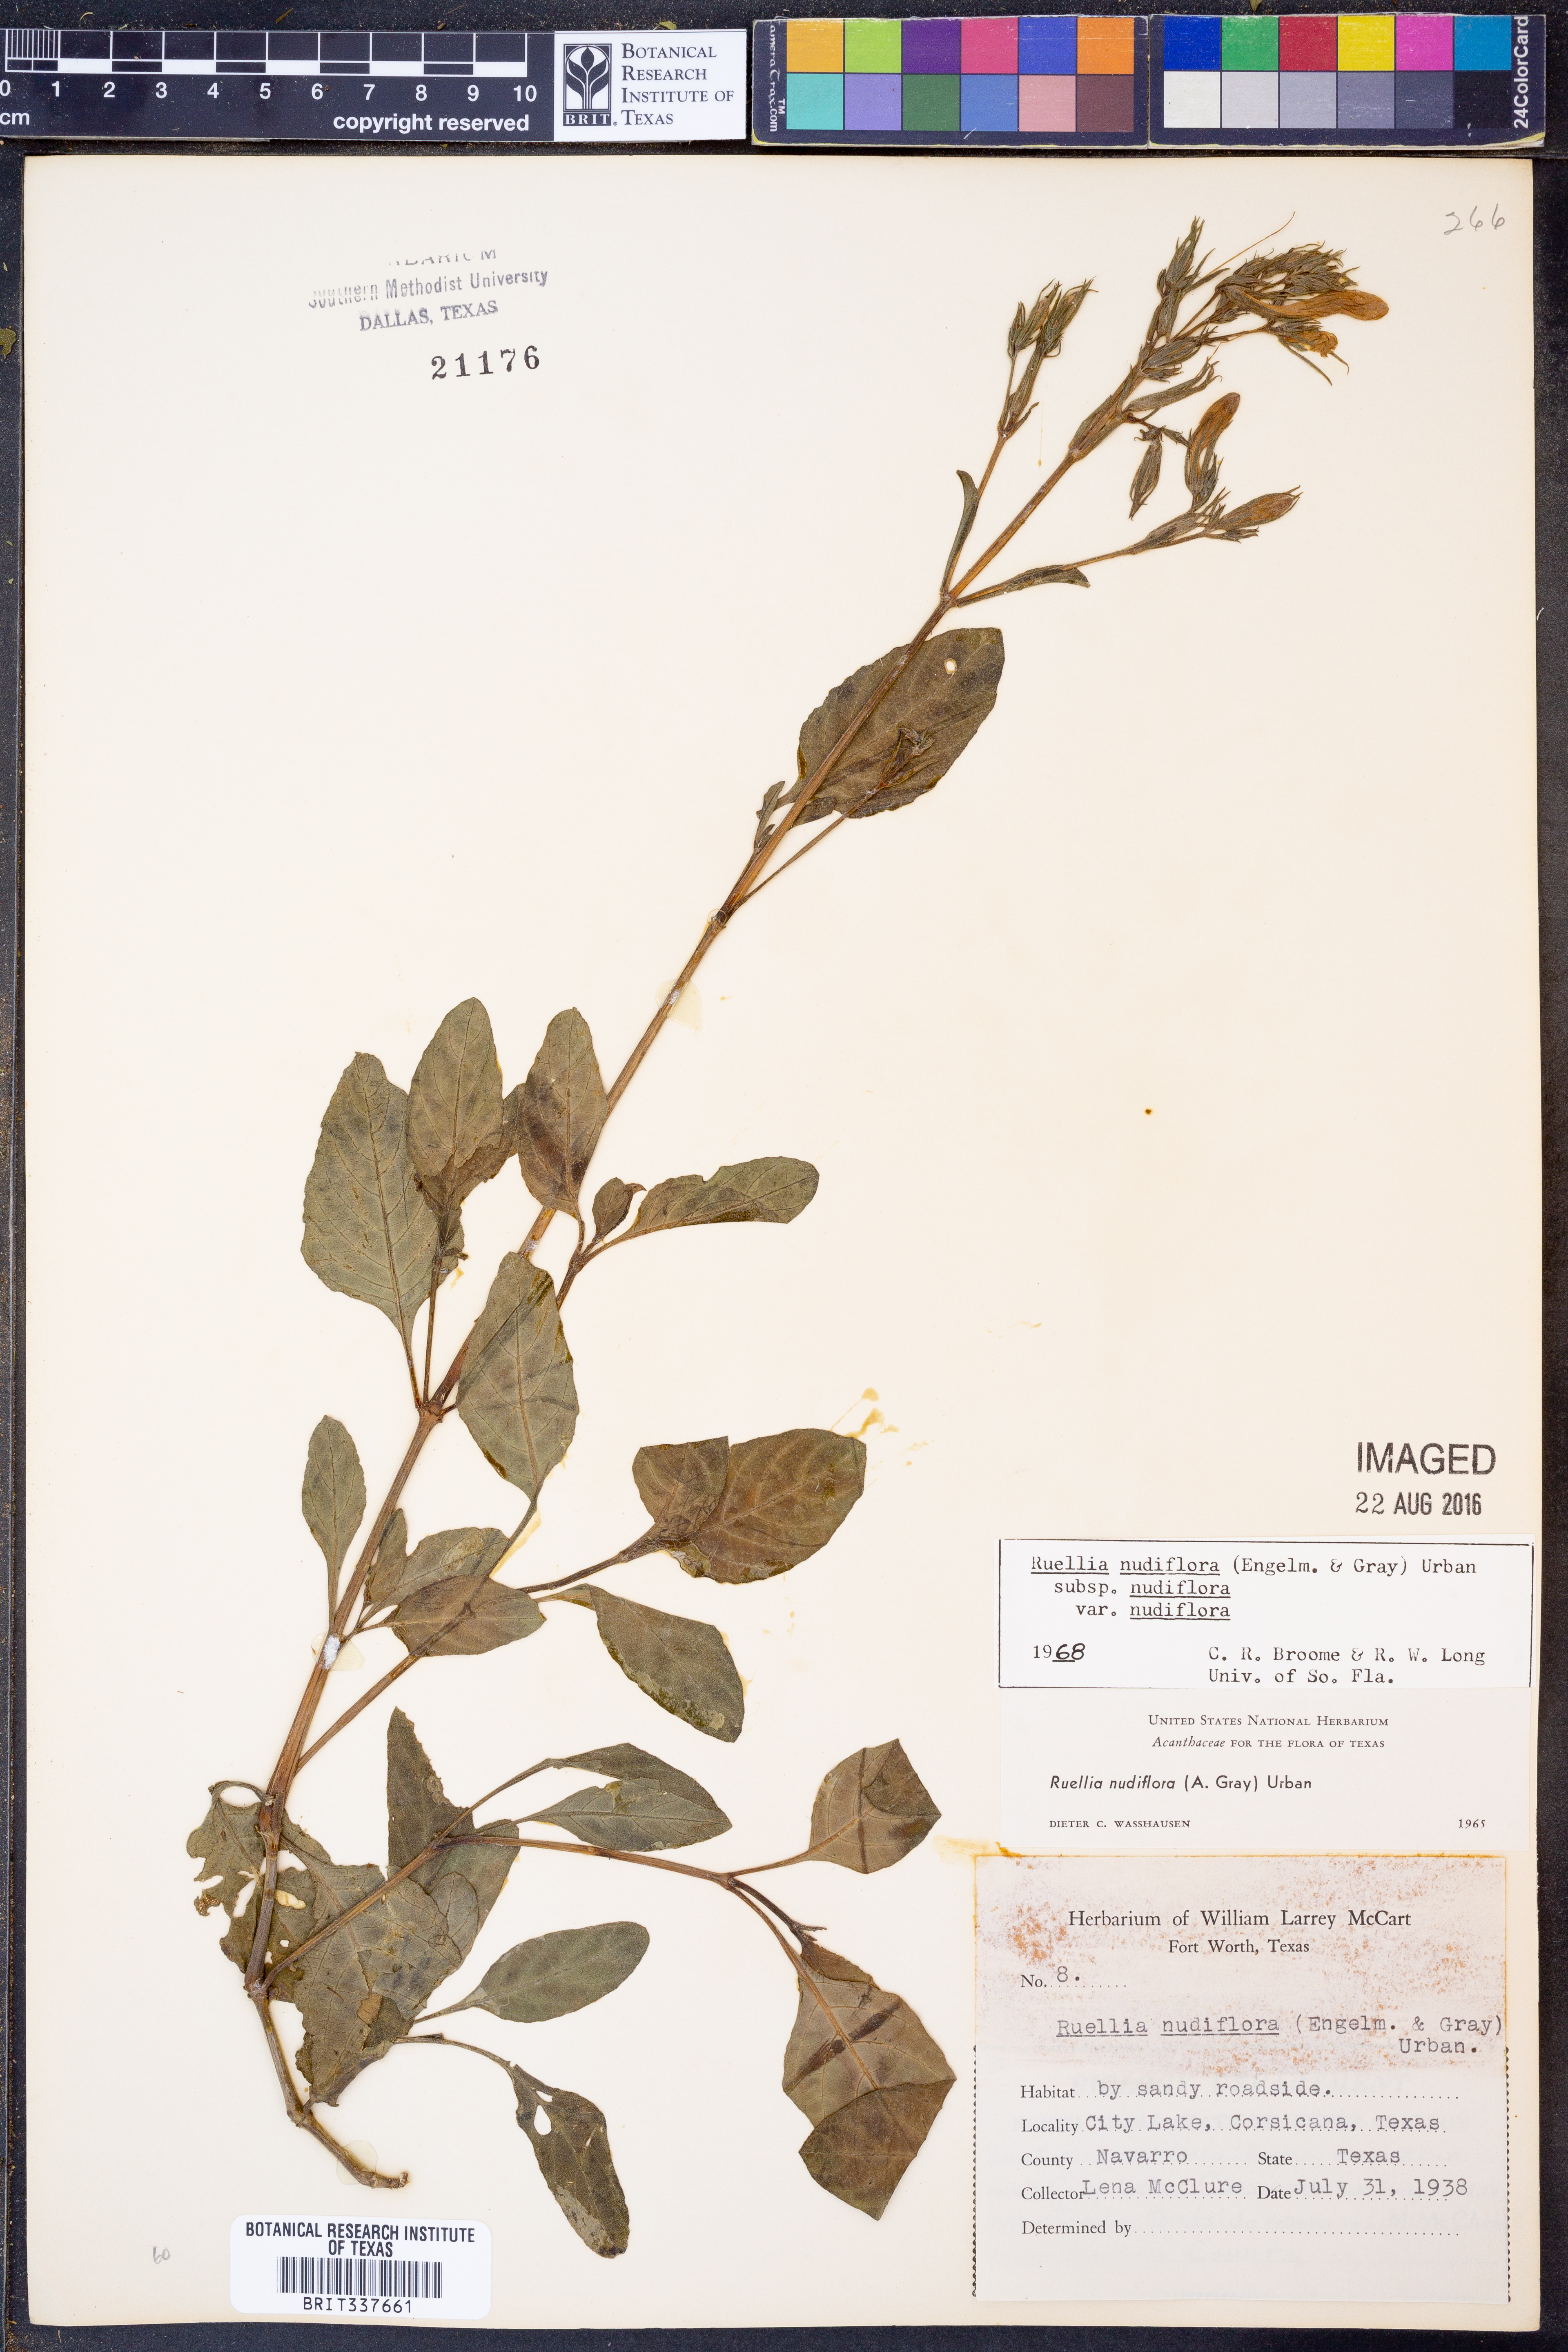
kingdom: Plantae
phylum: Tracheophyta
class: Magnoliopsida
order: Lamiales
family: Acanthaceae
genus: Ruellia
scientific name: Ruellia ciliatiflora
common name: Hairyflower wild petunia
